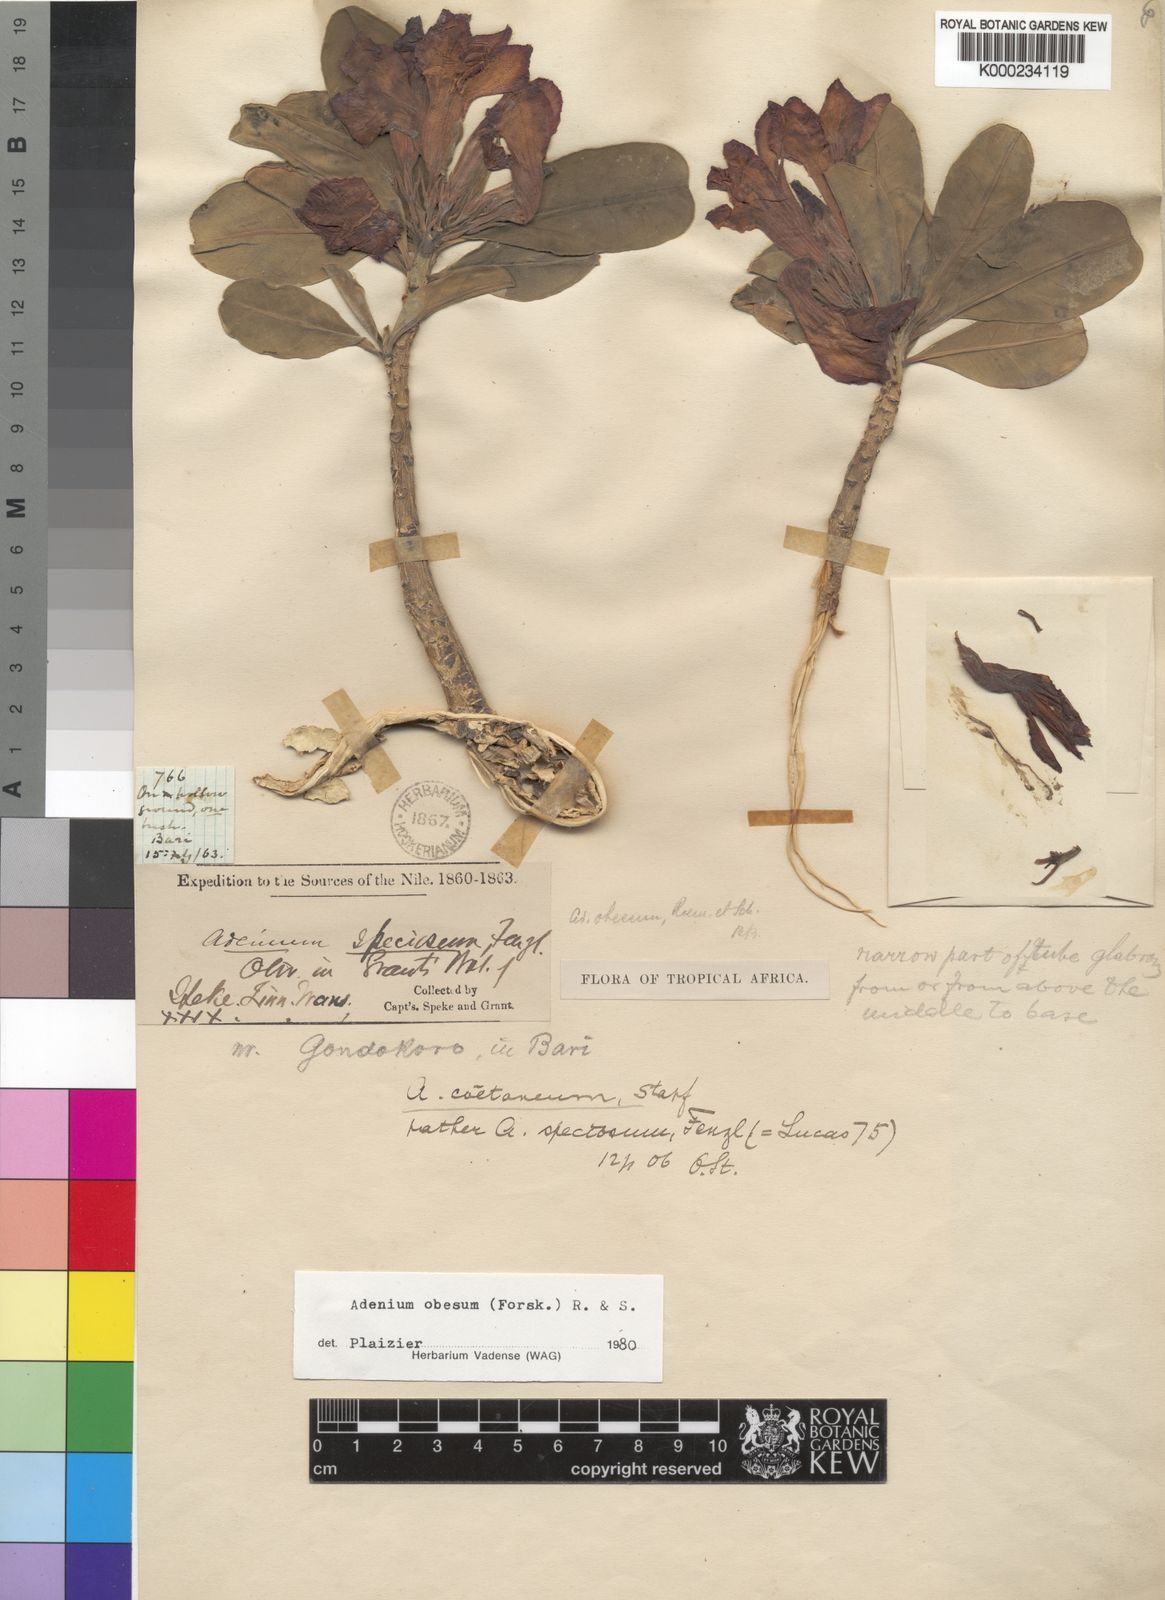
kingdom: Plantae
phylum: Tracheophyta
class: Magnoliopsida
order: Gentianales
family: Apocynaceae
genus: Adenium
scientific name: Adenium obesum
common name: Desert-rose
